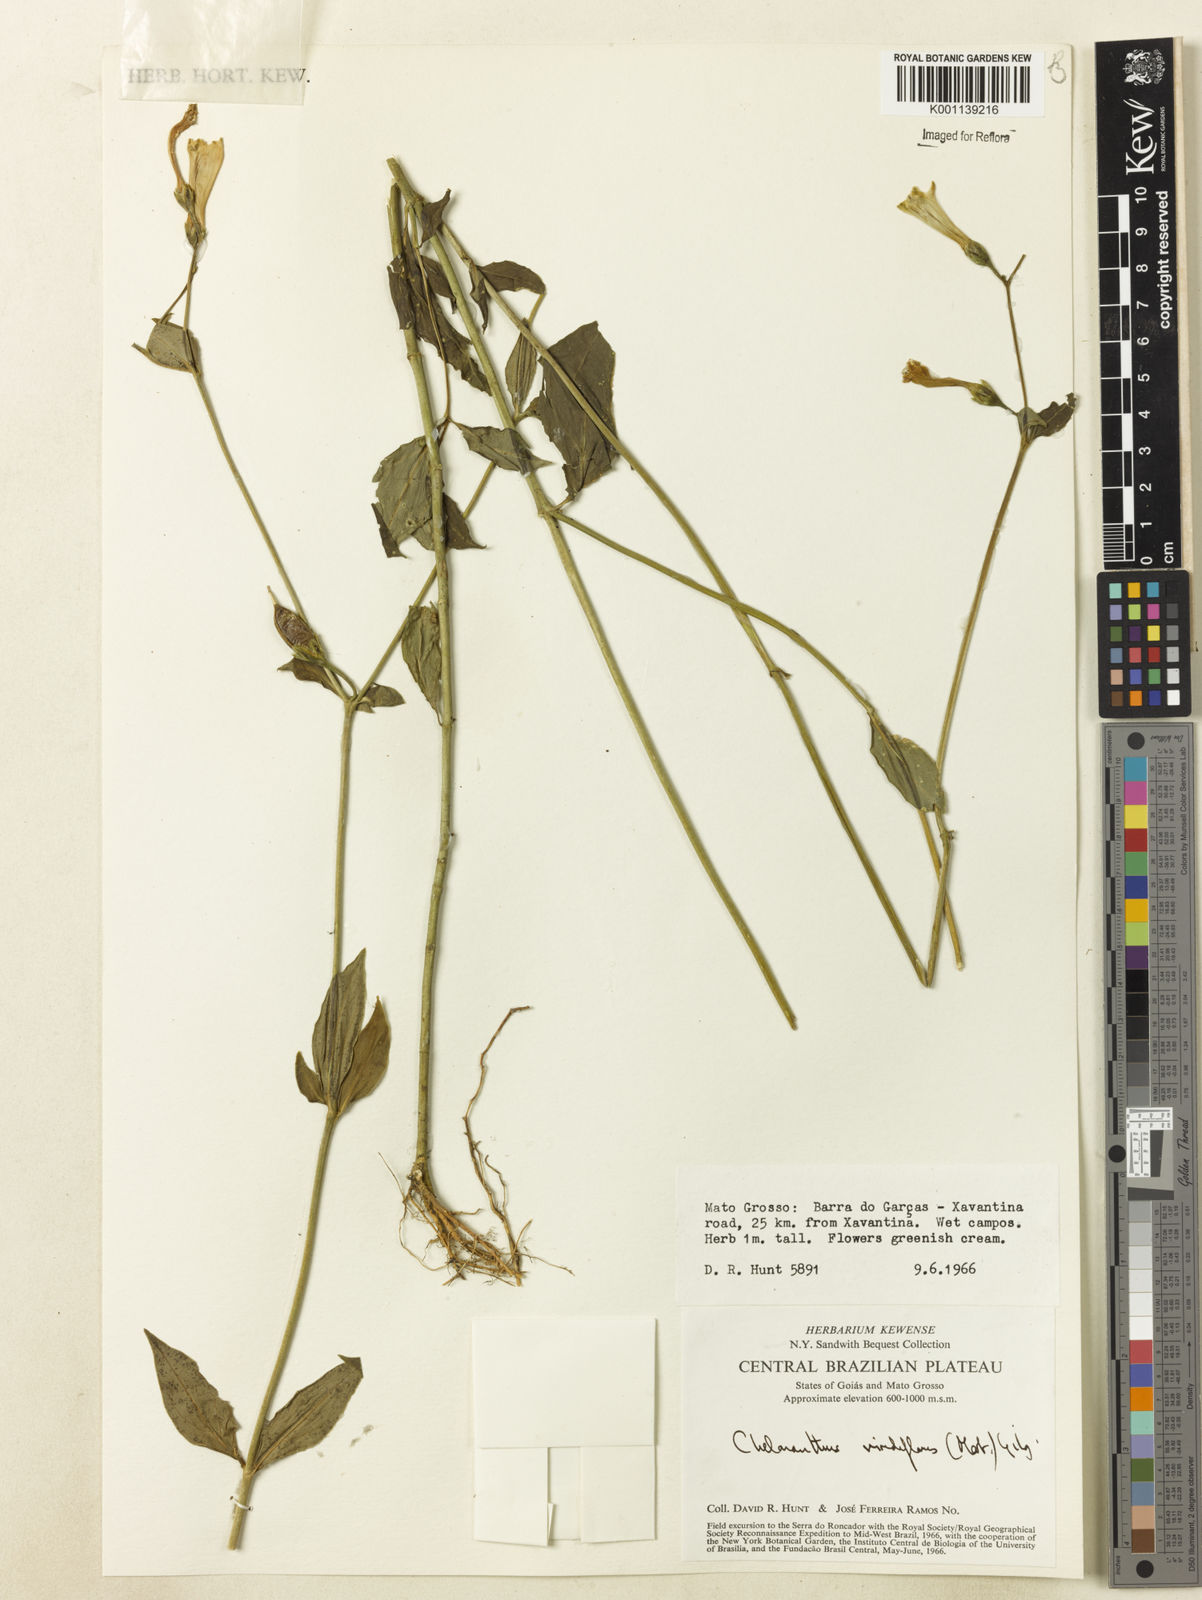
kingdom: Plantae
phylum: Tracheophyta
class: Magnoliopsida
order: Gentianales
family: Gentianaceae
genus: Chelonanthus
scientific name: Chelonanthus viridiflorus
